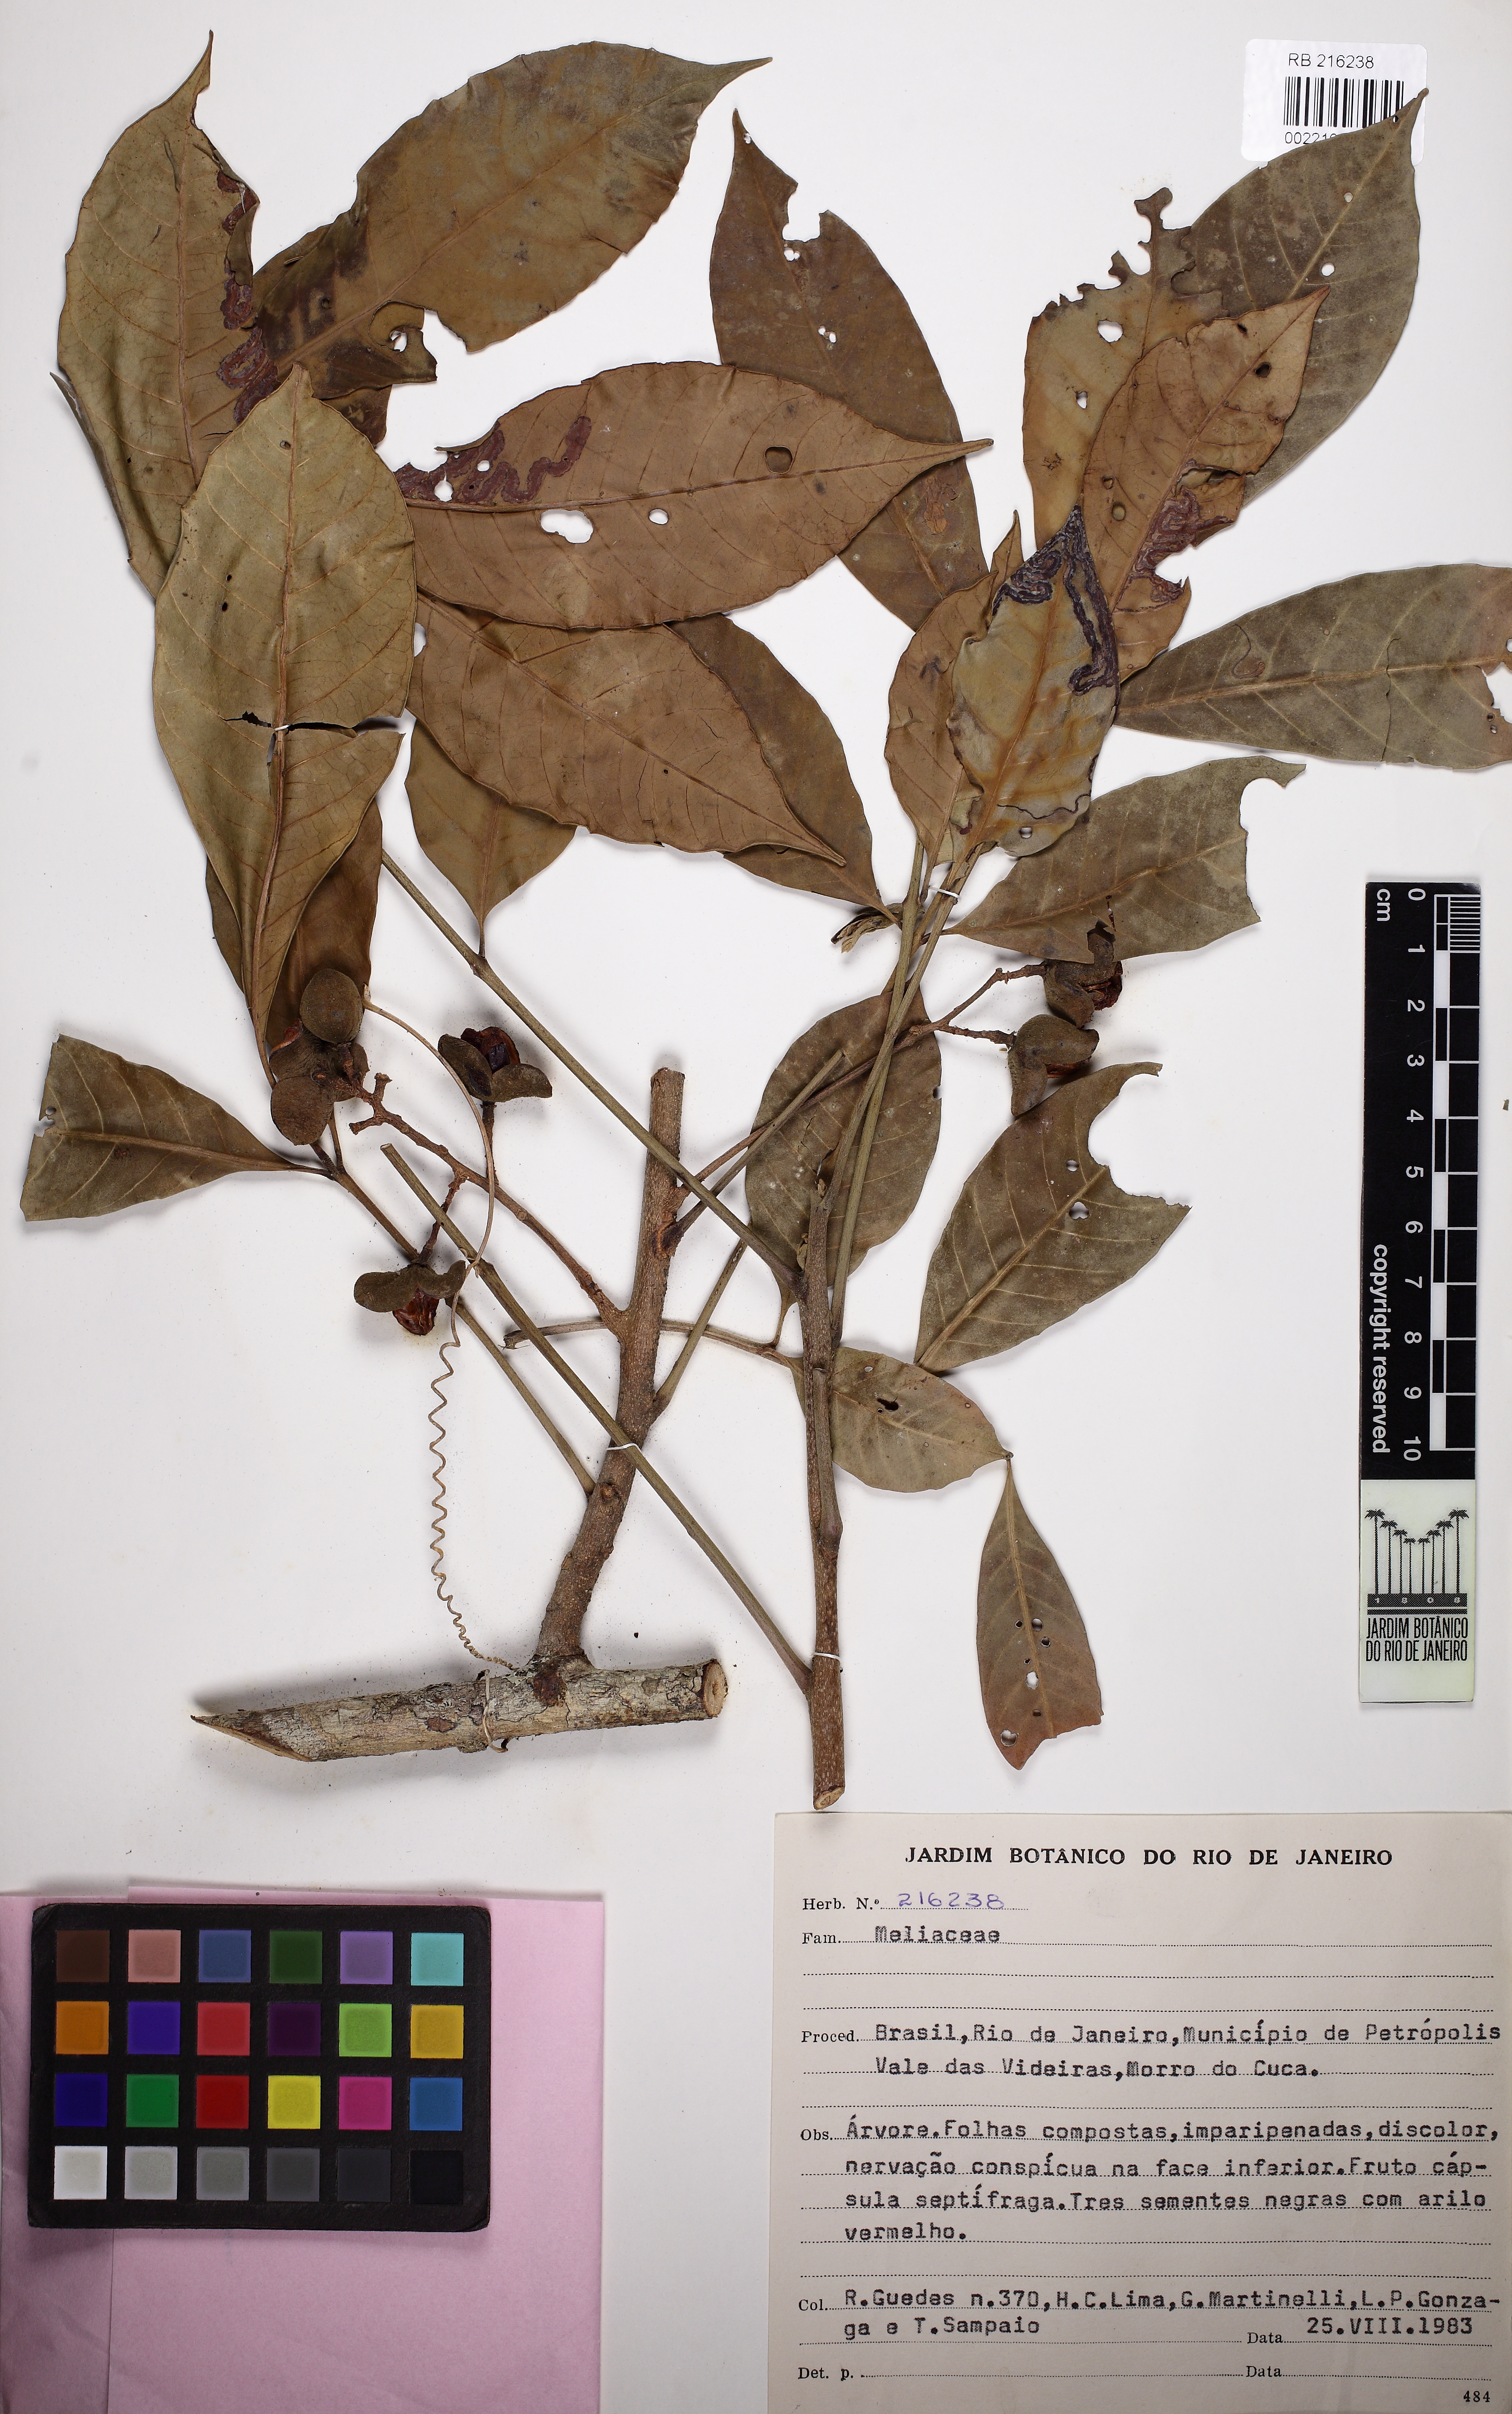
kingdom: Plantae
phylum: Tracheophyta
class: Magnoliopsida
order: Sapindales
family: Meliaceae
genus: Trichilia
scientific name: Trichilia
